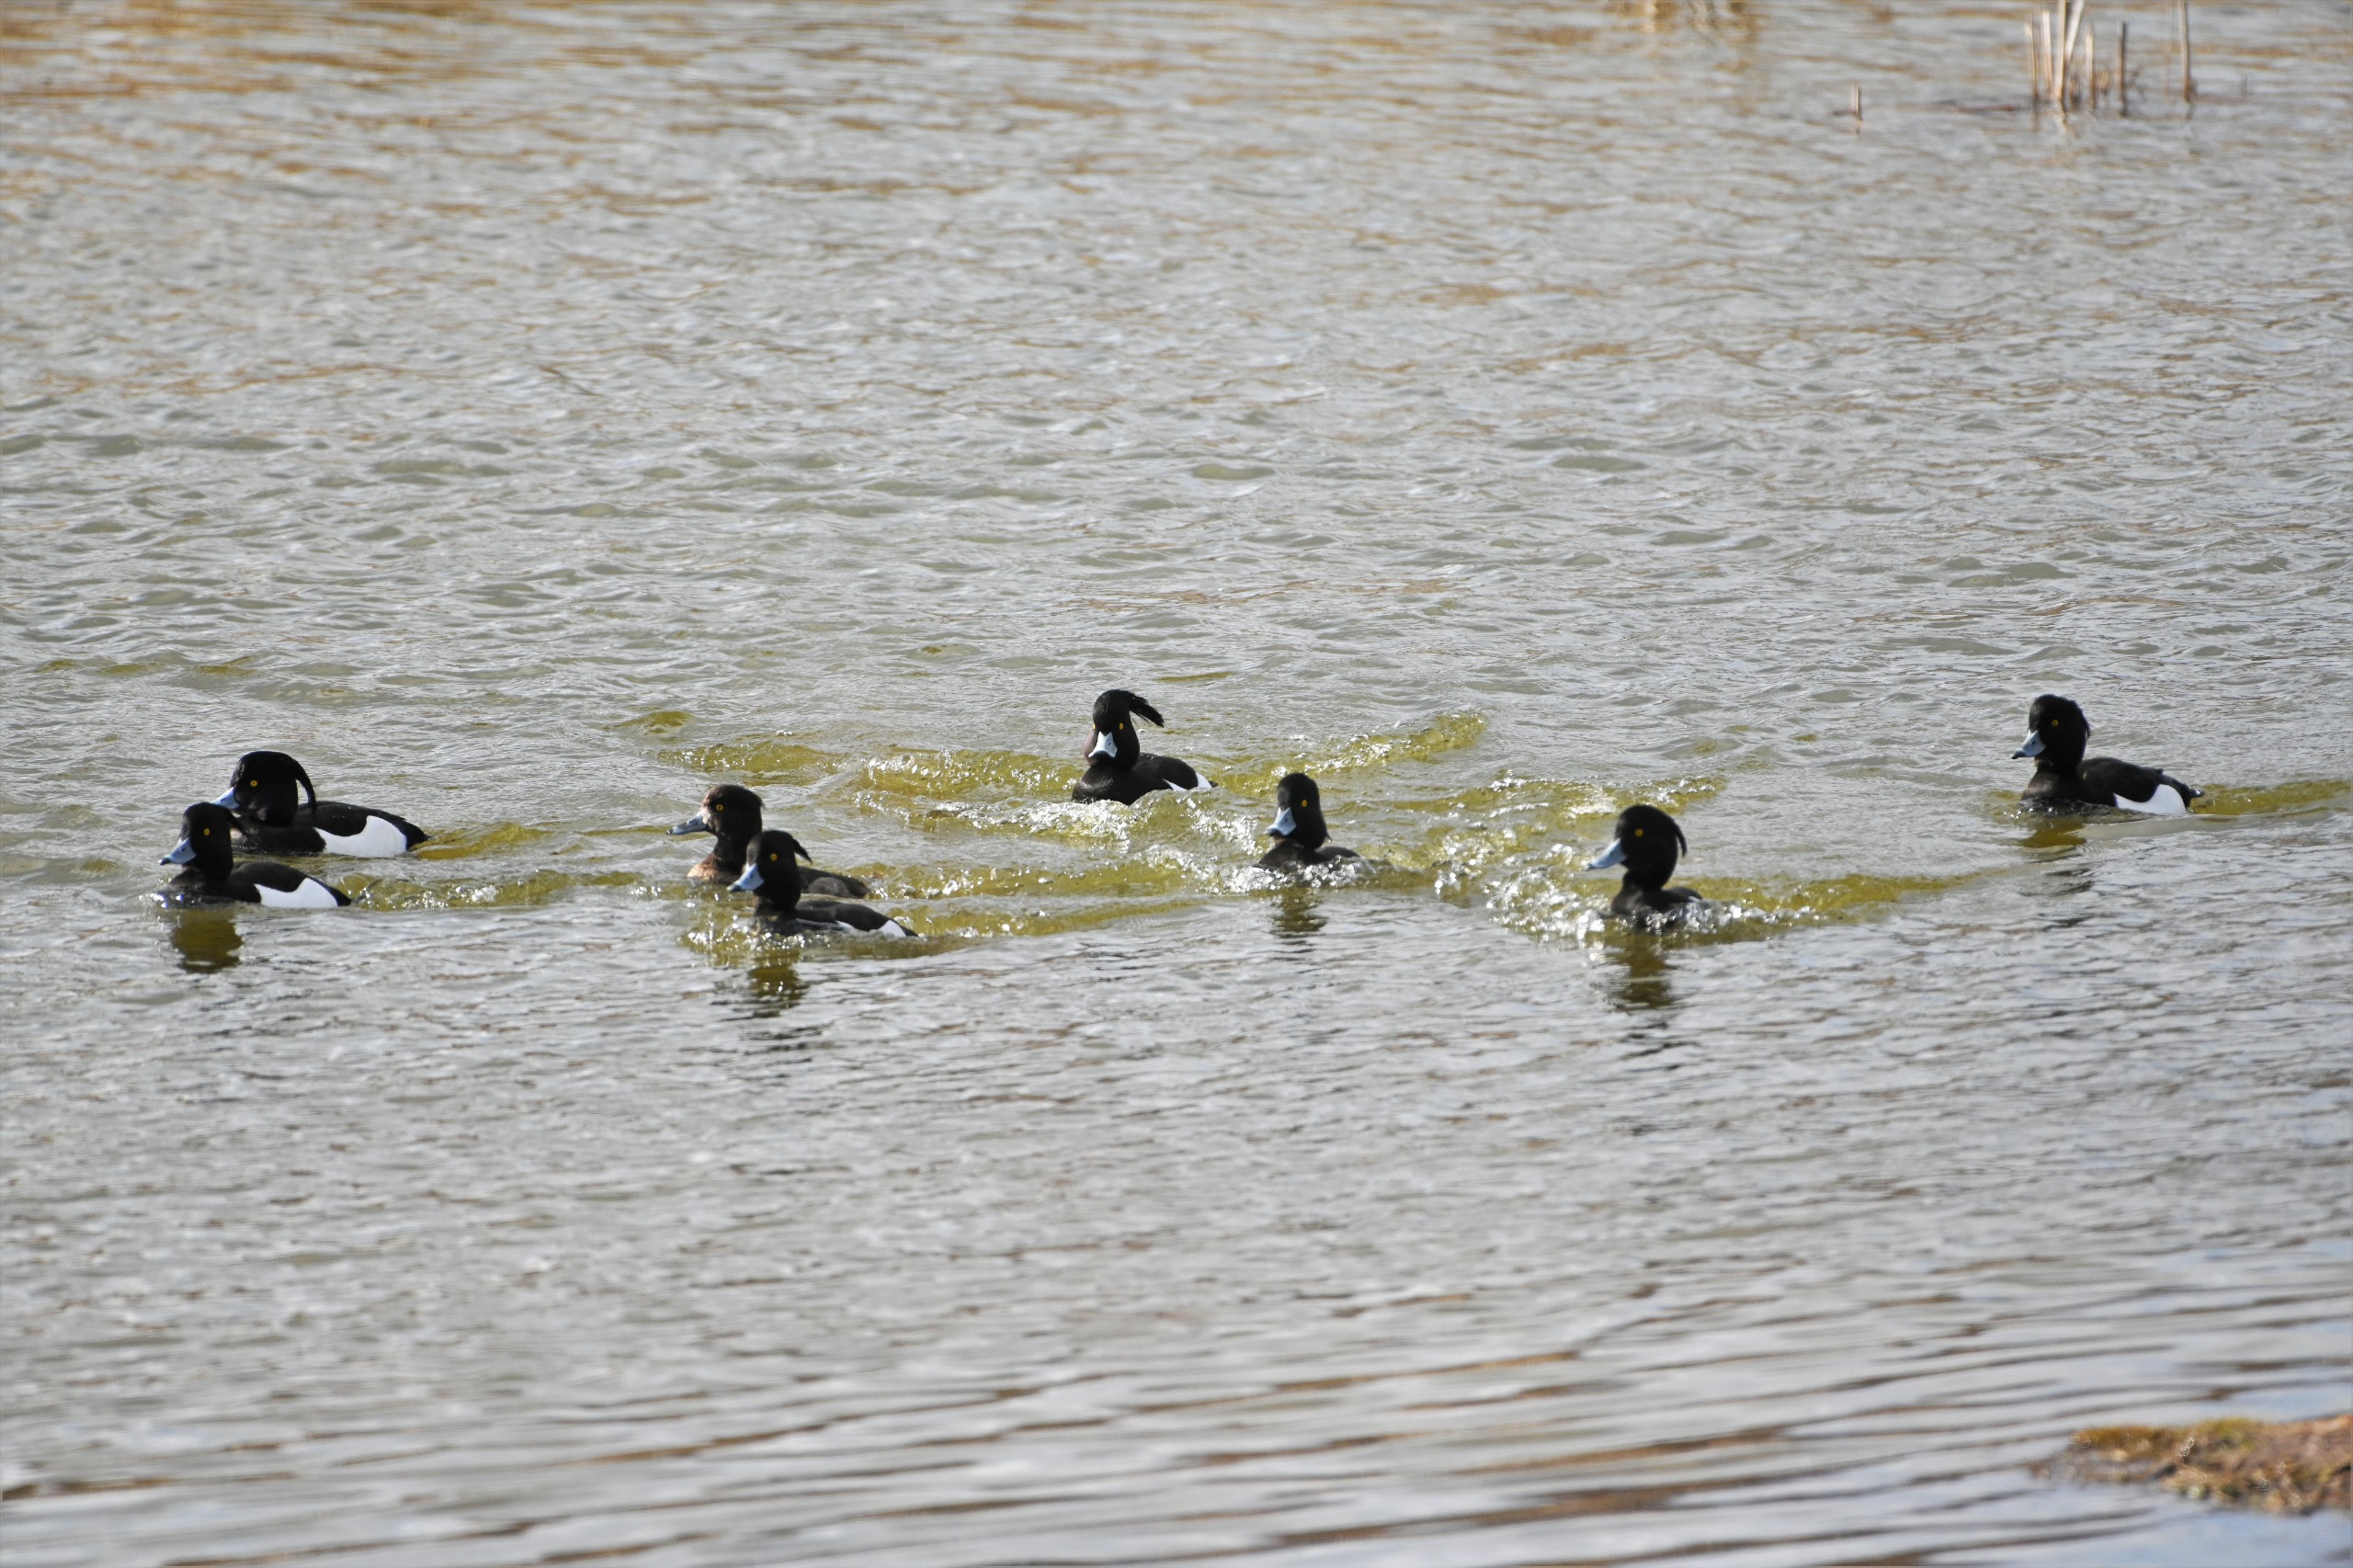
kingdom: Animalia
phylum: Chordata
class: Aves
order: Anseriformes
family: Anatidae
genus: Aythya
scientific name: Aythya fuligula
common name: Troldand
